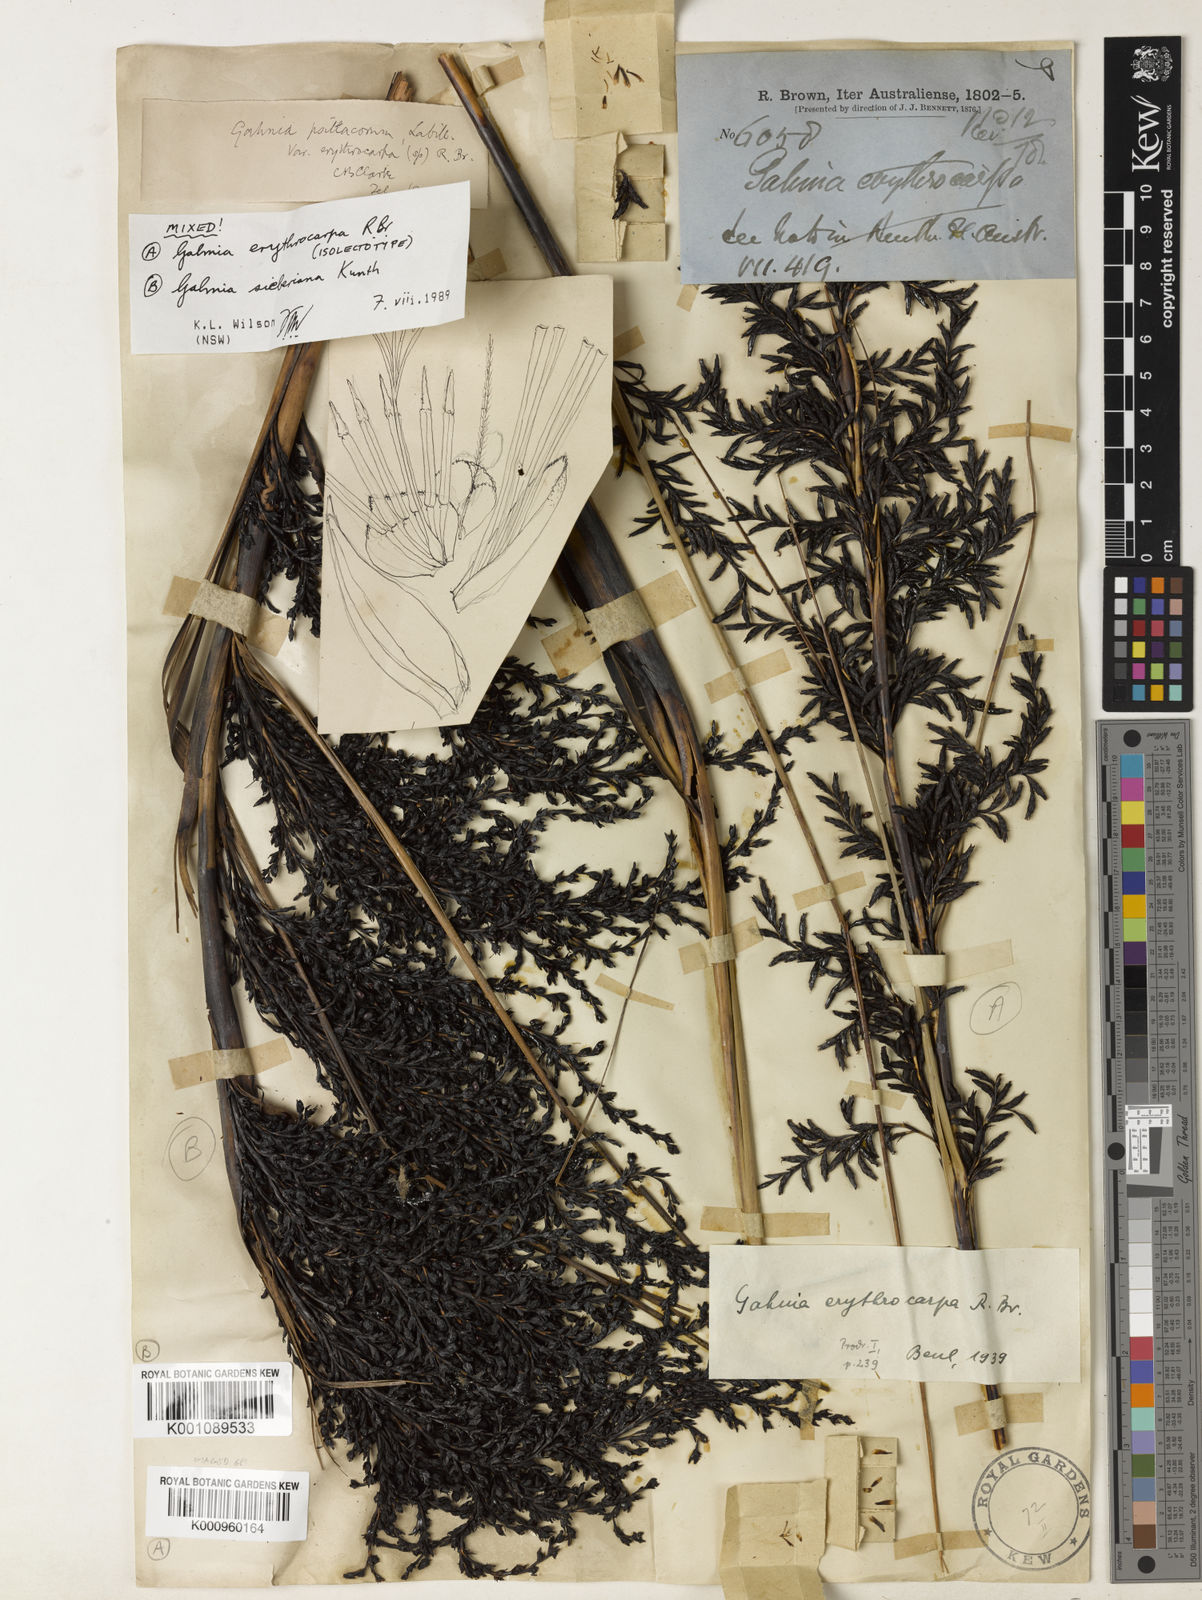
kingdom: Plantae
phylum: Tracheophyta
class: Liliopsida
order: Poales
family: Cyperaceae
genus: Gahnia
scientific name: Gahnia erythrocarpa
